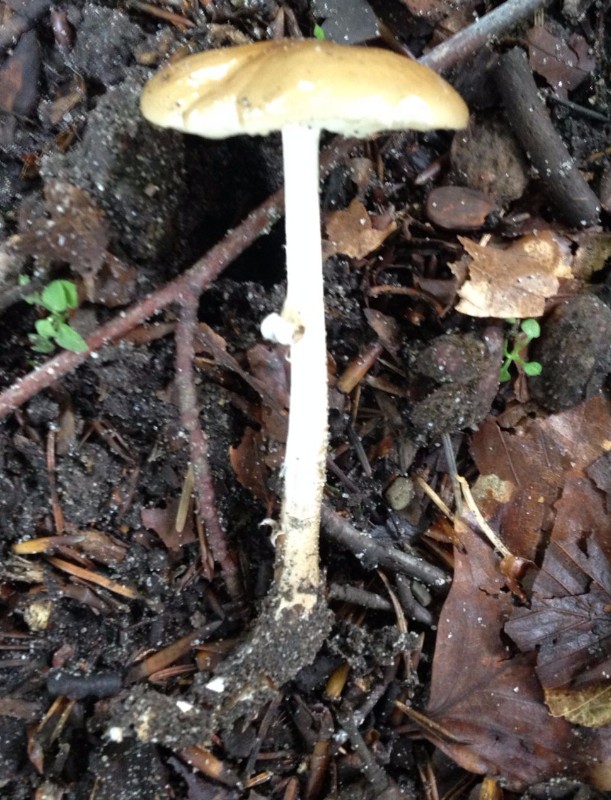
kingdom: Fungi
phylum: Basidiomycota
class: Agaricomycetes
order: Agaricales
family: Physalacriaceae
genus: Hymenopellis
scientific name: Hymenopellis radicata
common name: almindelig pælerodshat
